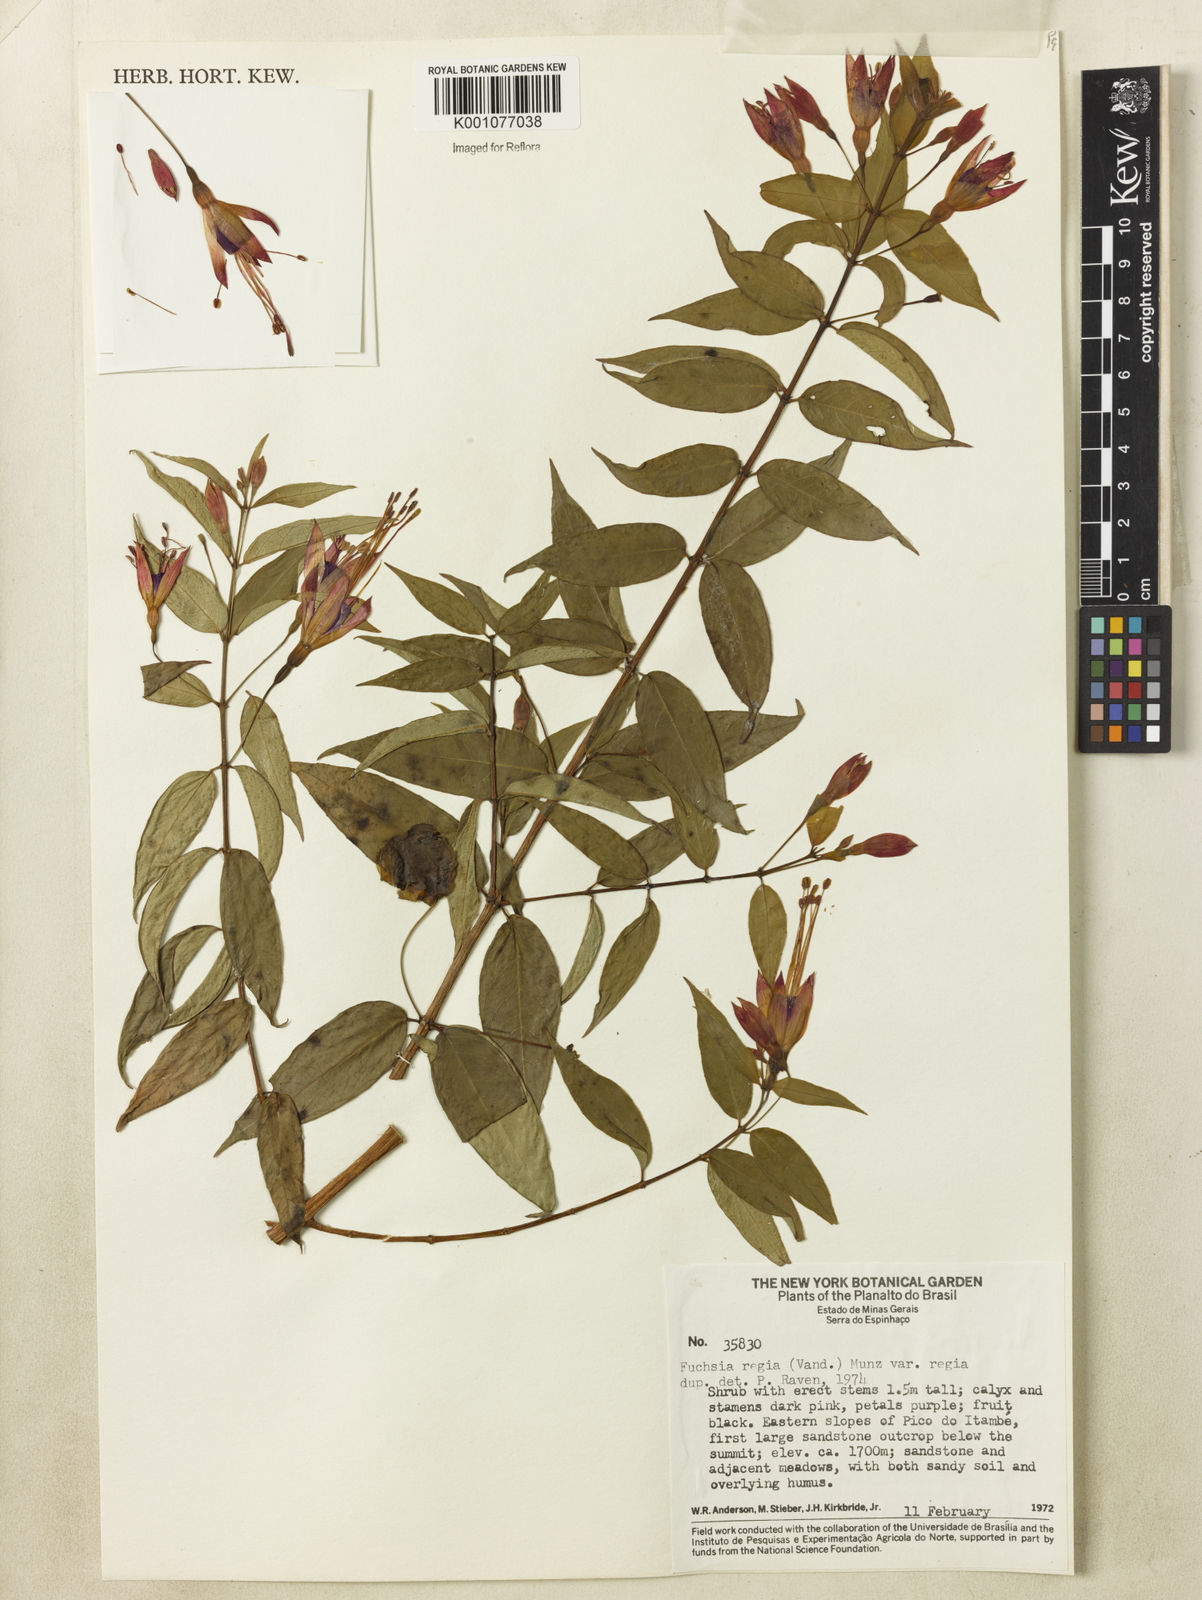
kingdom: Plantae
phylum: Tracheophyta
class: Magnoliopsida
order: Myrtales
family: Onagraceae
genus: Fuchsia
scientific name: Fuchsia regia
